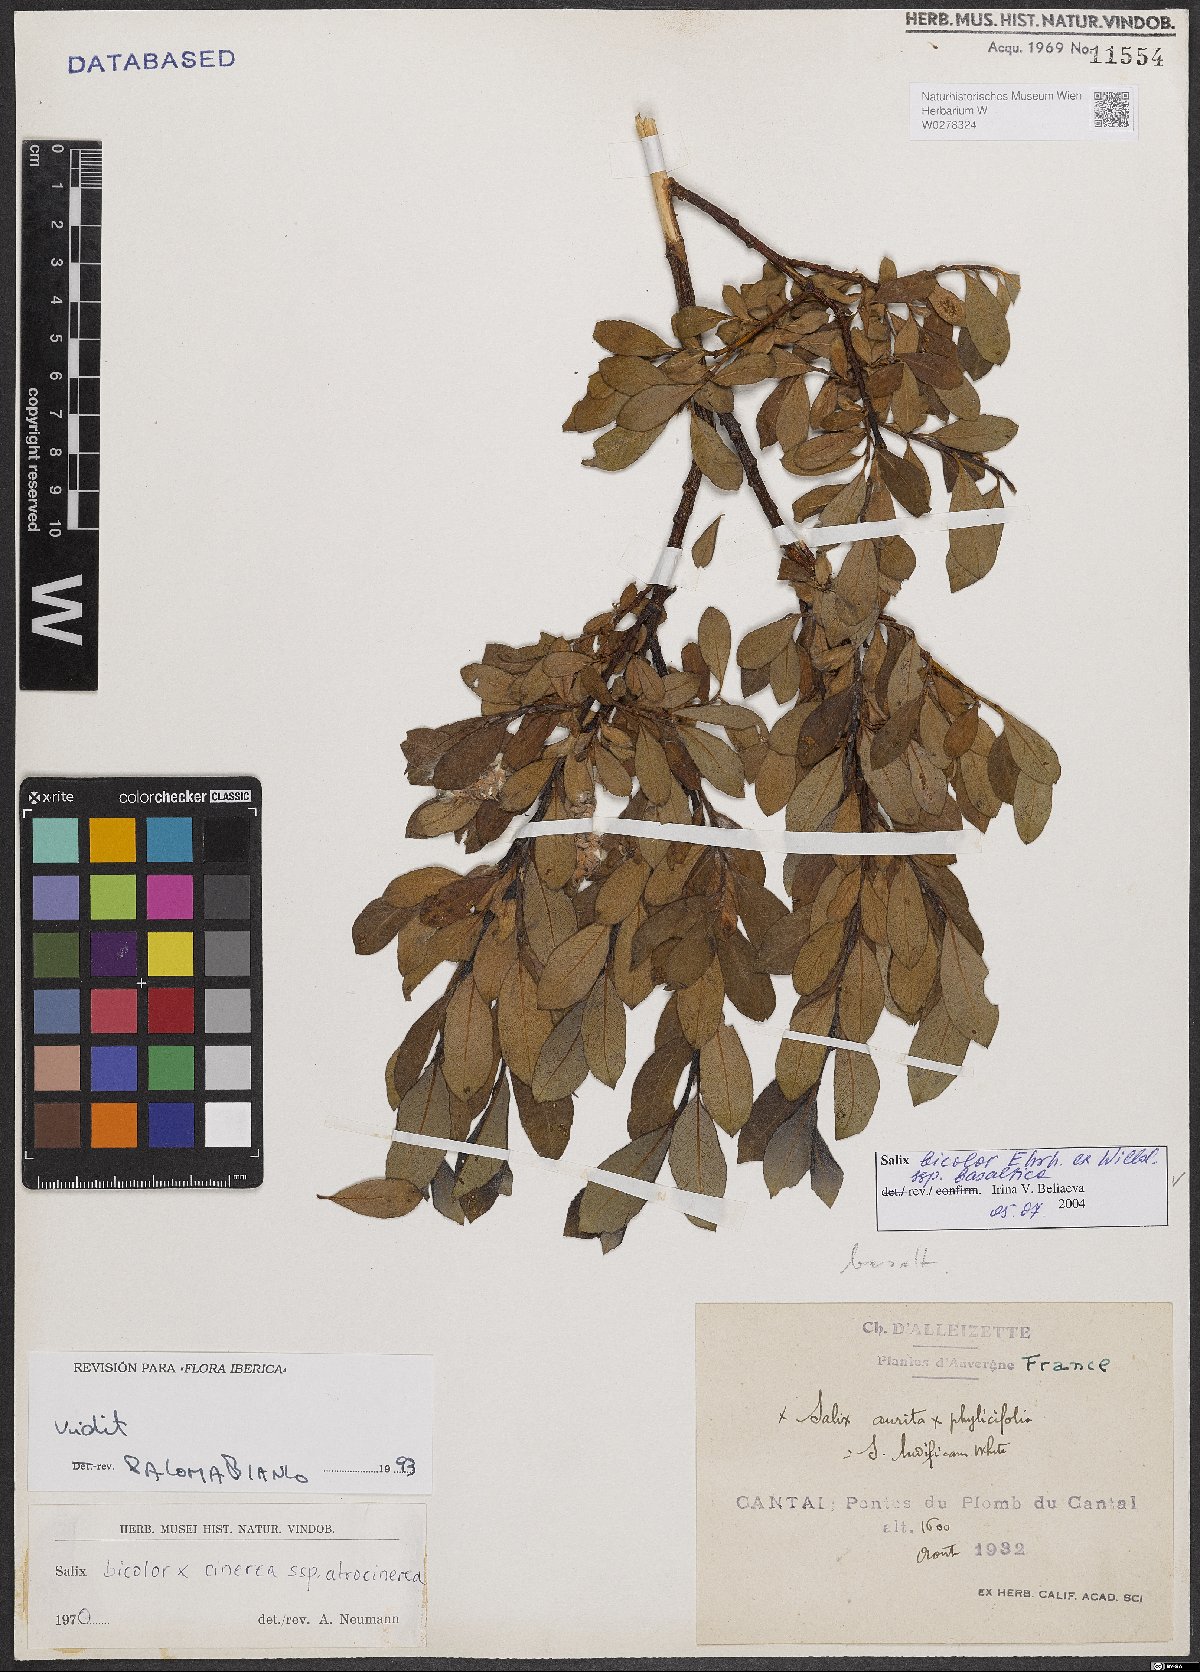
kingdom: Plantae
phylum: Tracheophyta
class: Magnoliopsida
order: Malpighiales
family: Salicaceae
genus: Salix
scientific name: Salix basaltica
